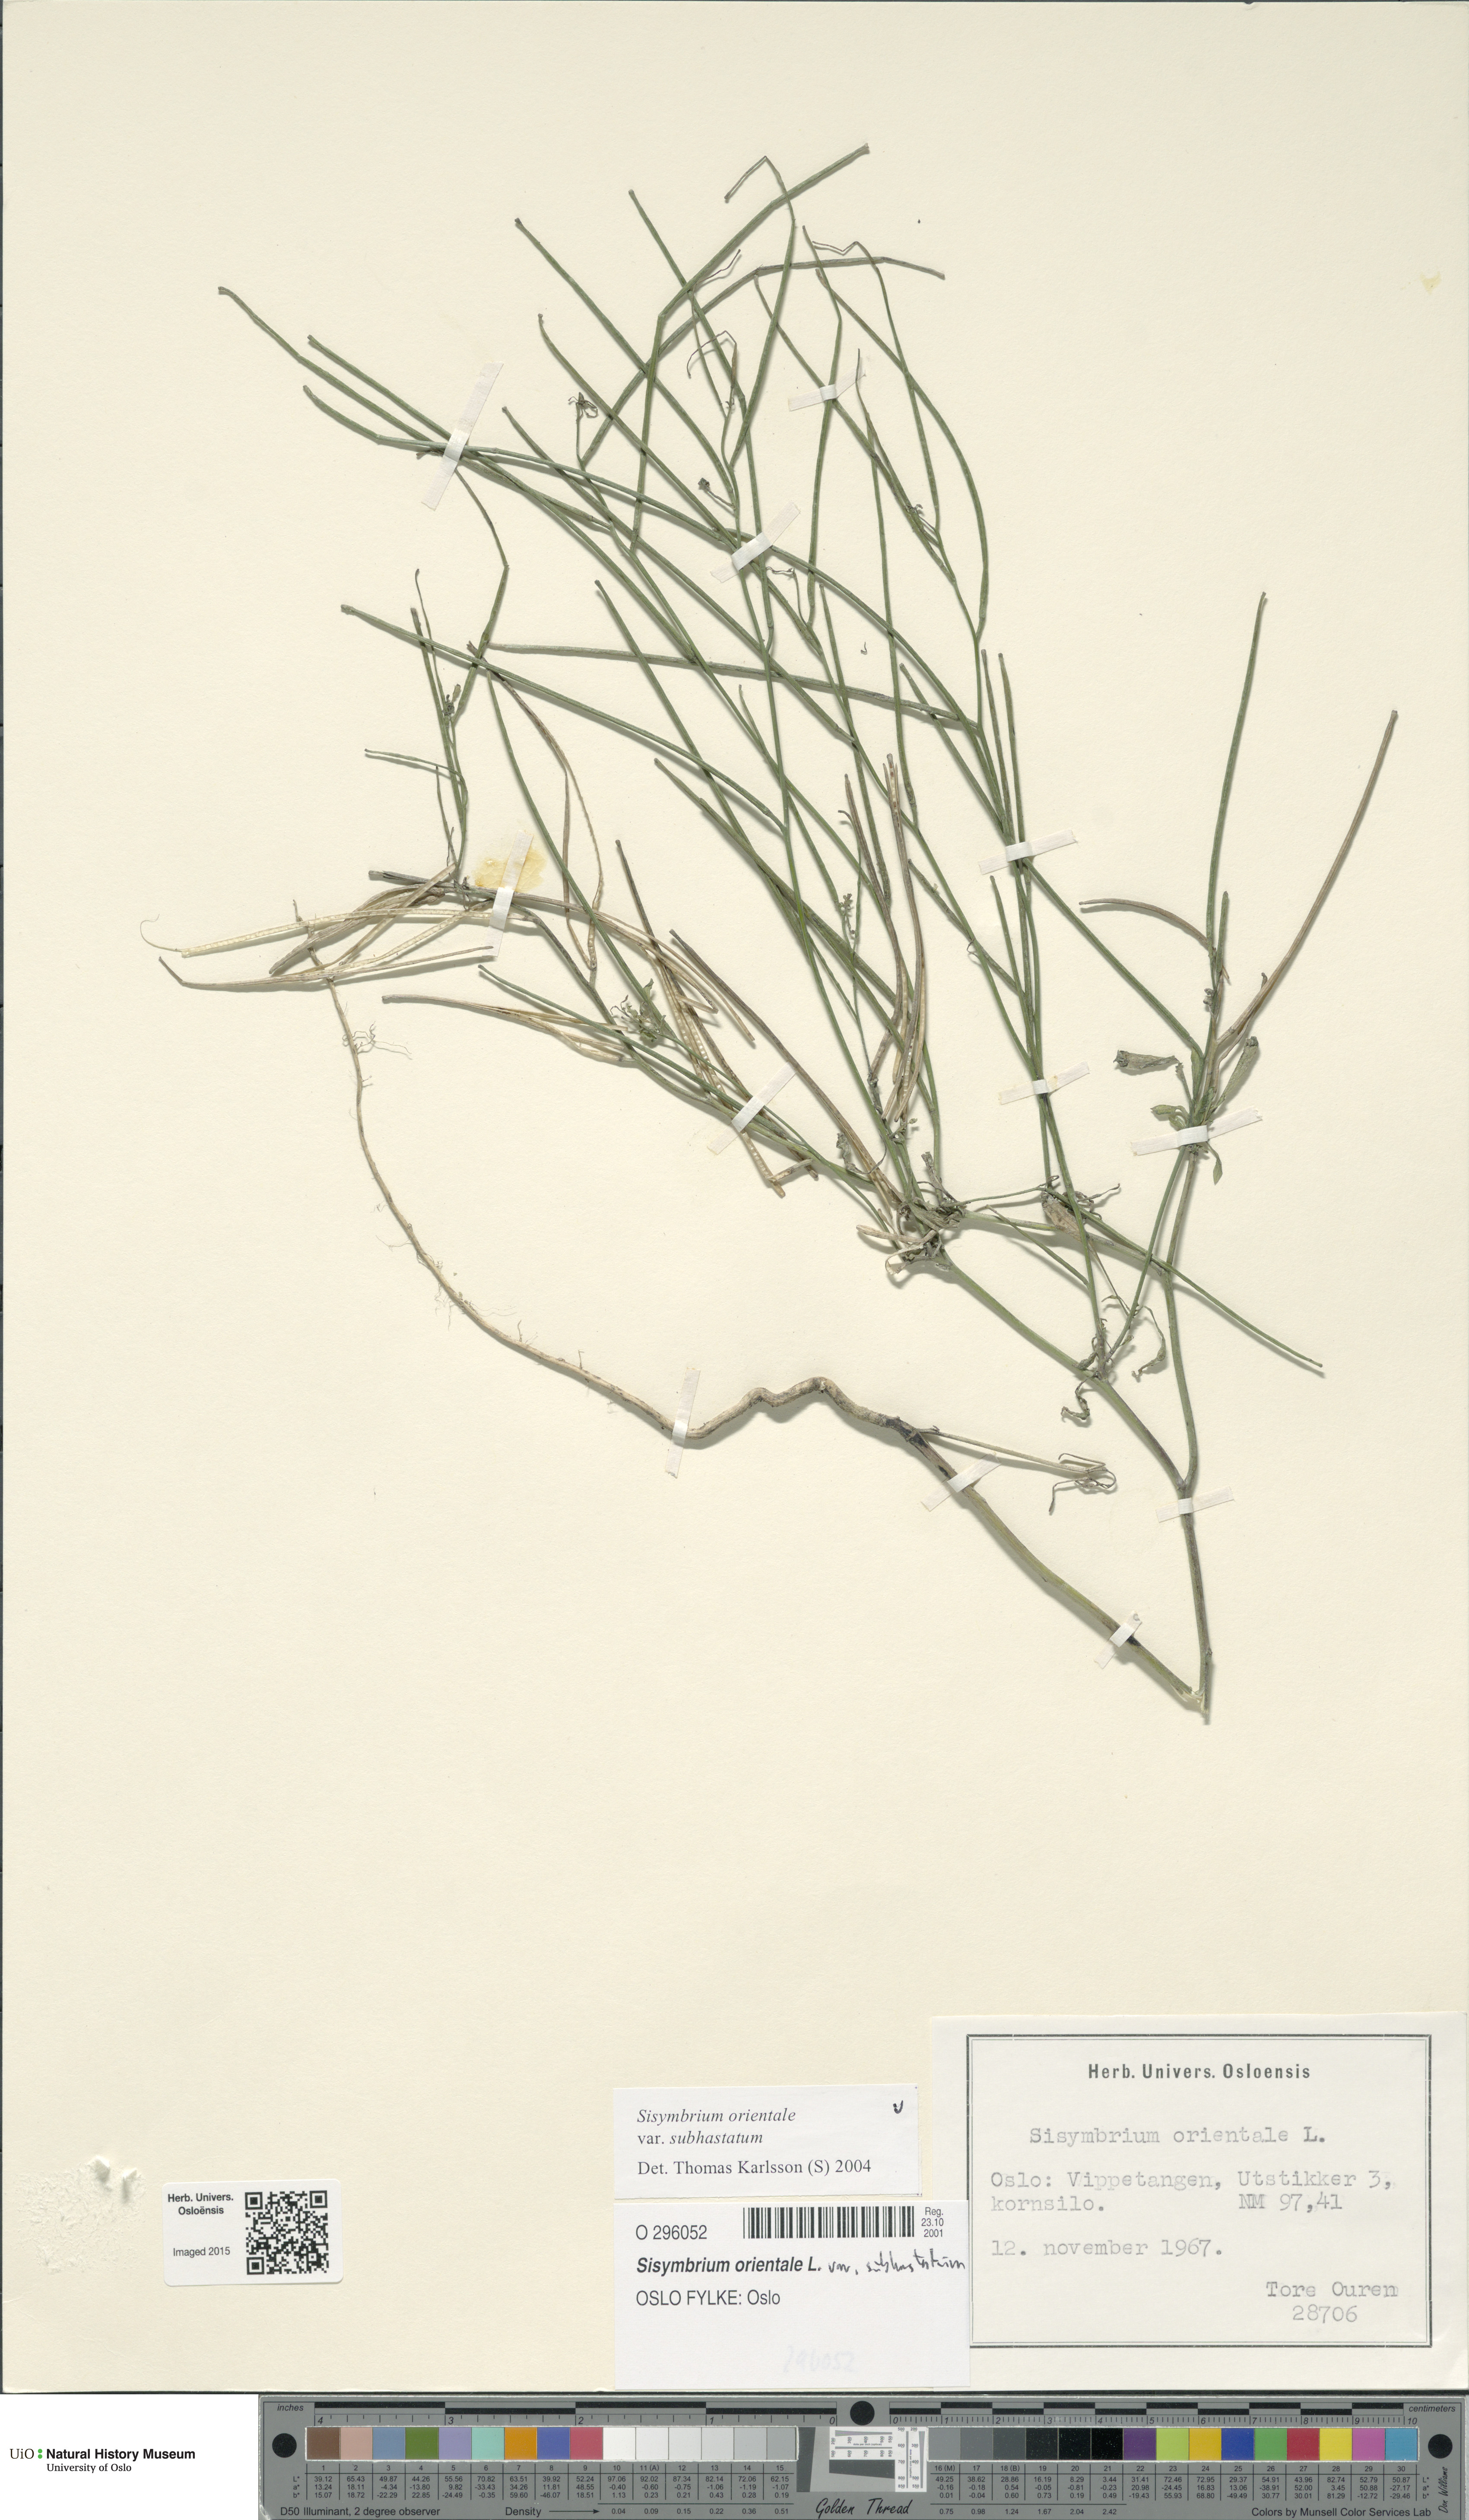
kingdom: Plantae
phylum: Tracheophyta
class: Magnoliopsida
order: Brassicales
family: Brassicaceae
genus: Sisymbrium
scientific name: Sisymbrium orientale
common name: Eastern rocket
